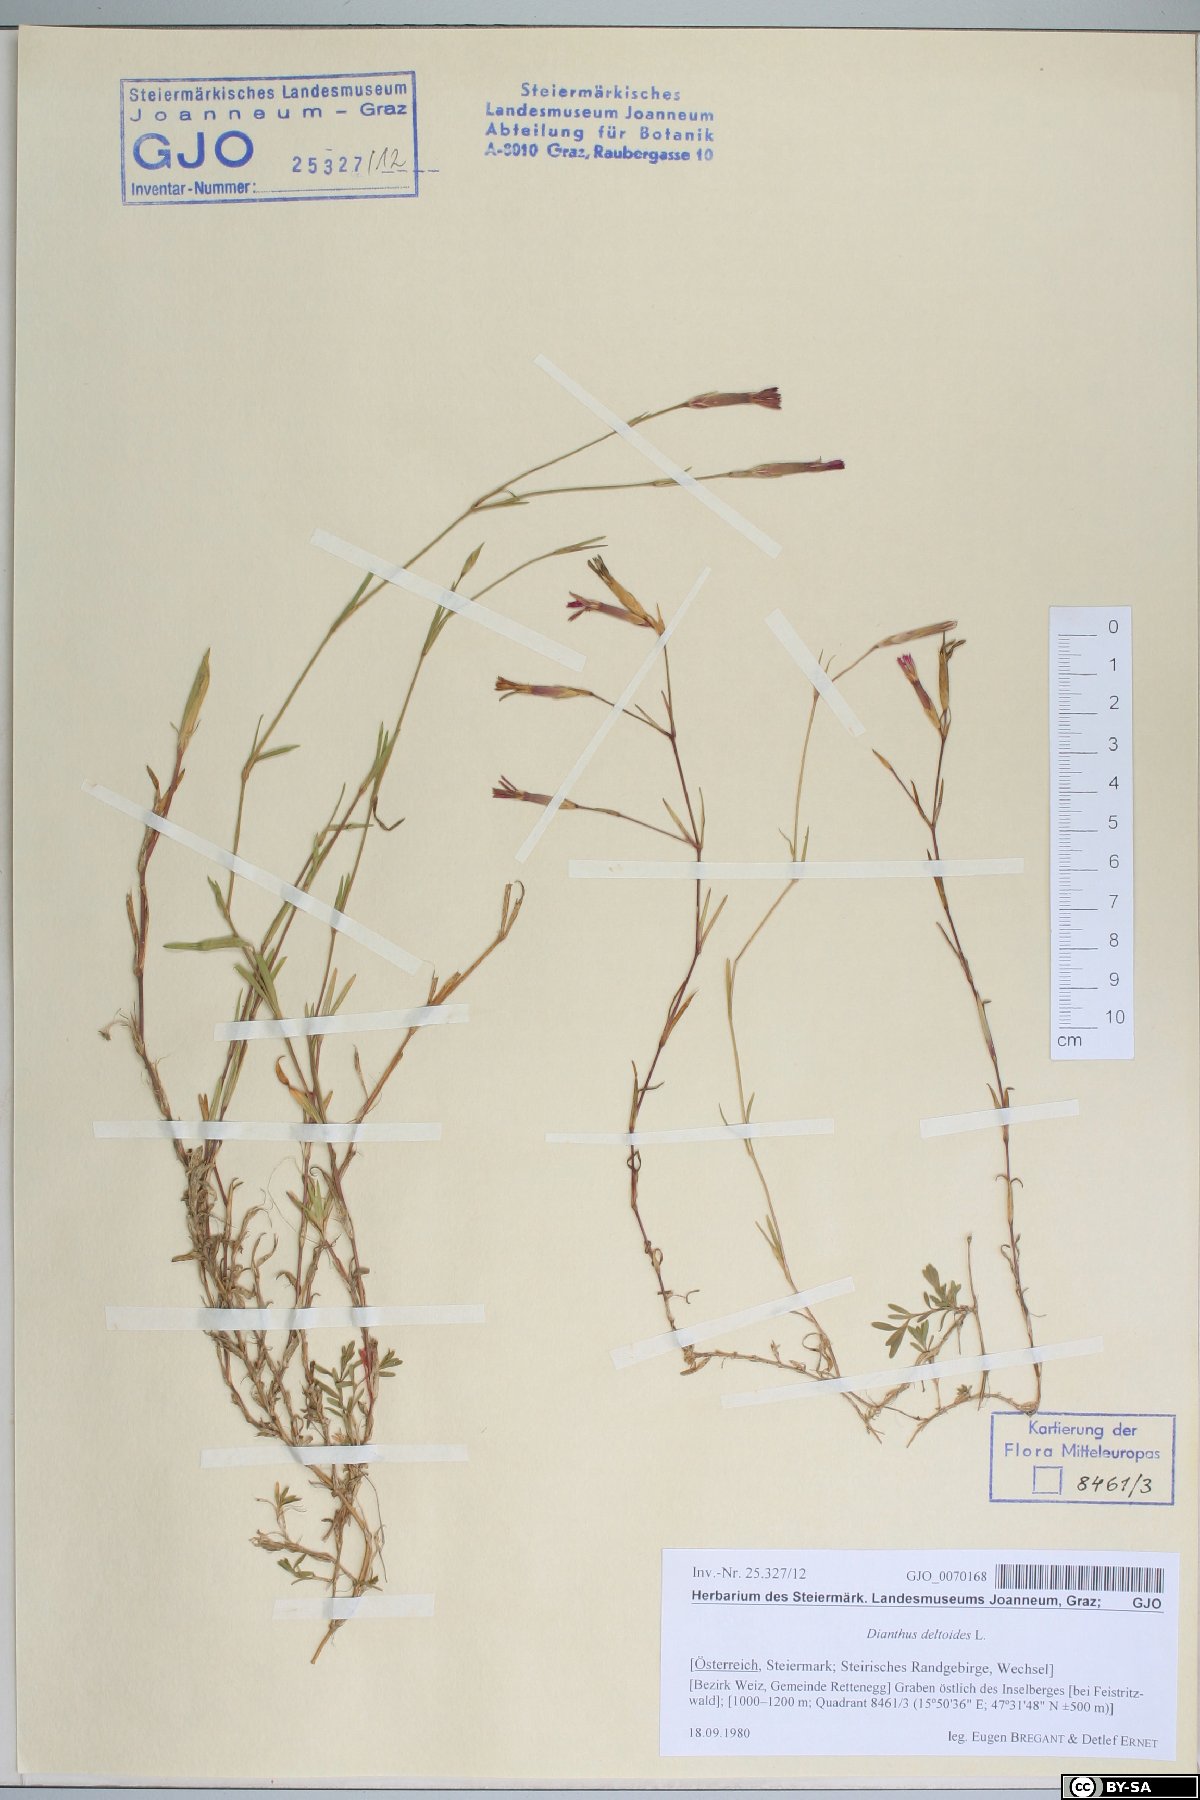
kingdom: Plantae
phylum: Tracheophyta
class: Magnoliopsida
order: Caryophyllales
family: Caryophyllaceae
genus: Dianthus
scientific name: Dianthus deltoides
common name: Maiden pink
